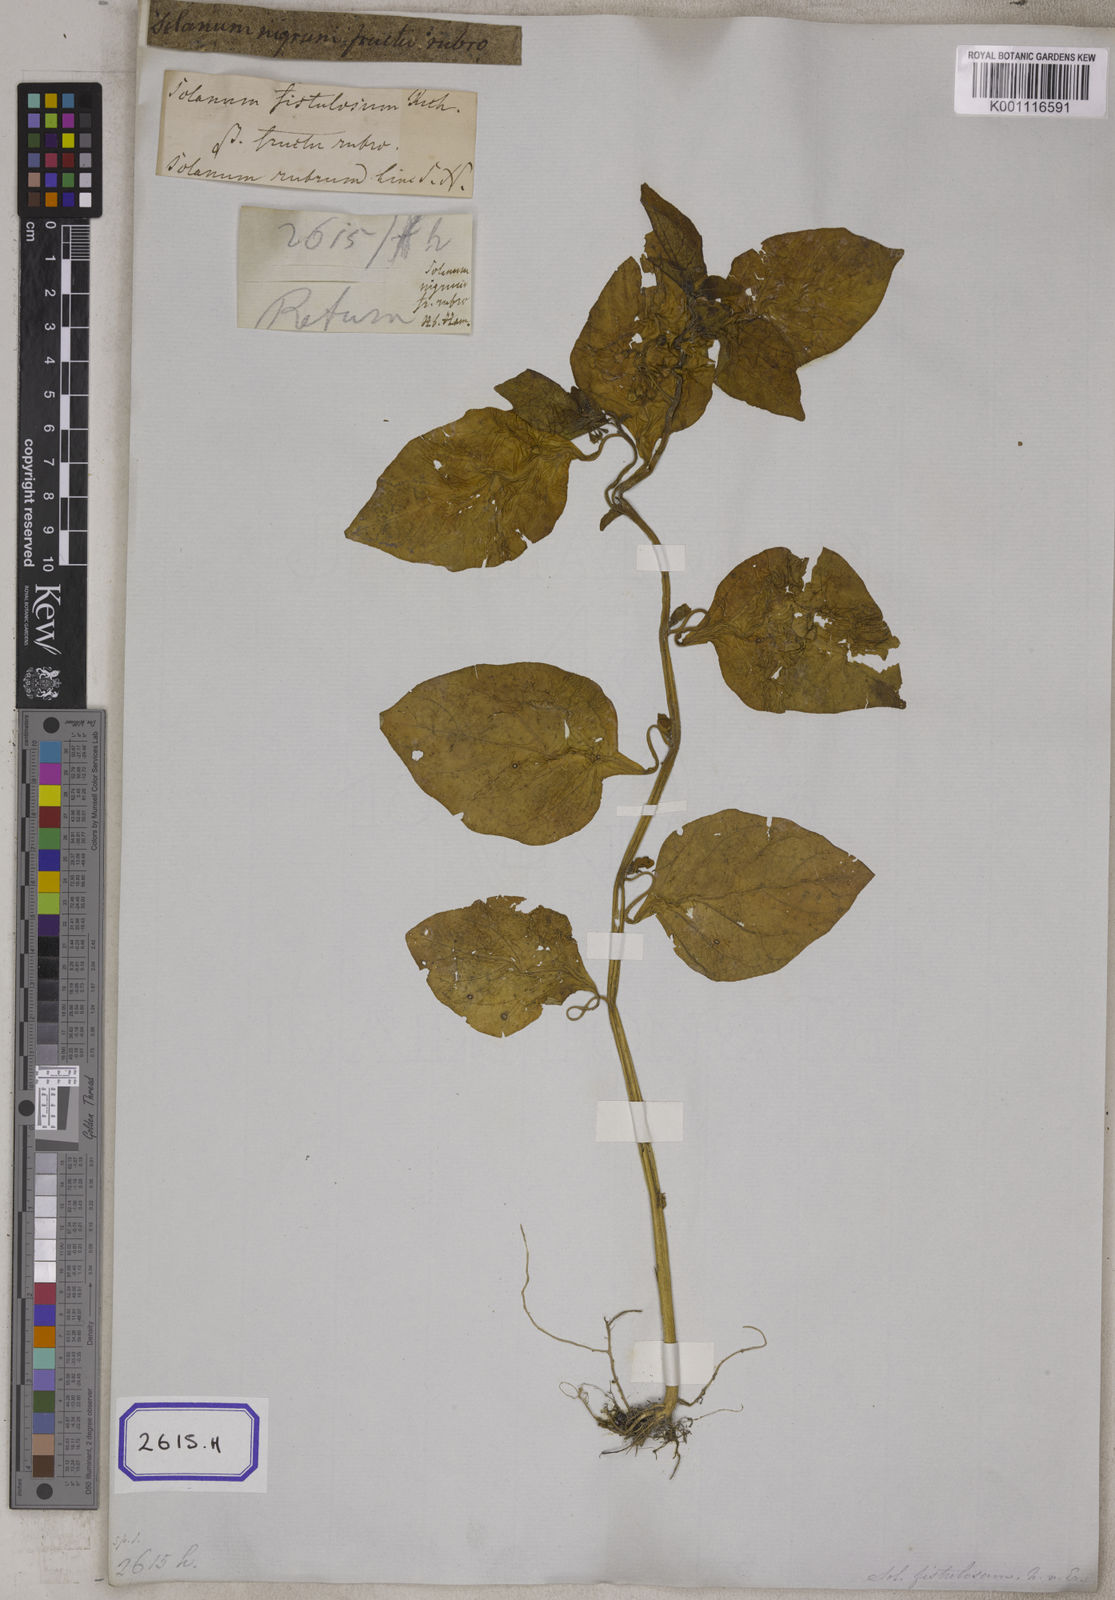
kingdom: Plantae
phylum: Tracheophyta
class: Magnoliopsida
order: Solanales
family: Solanaceae
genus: Solanum
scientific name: Solanum nigrum
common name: Black nightshade
